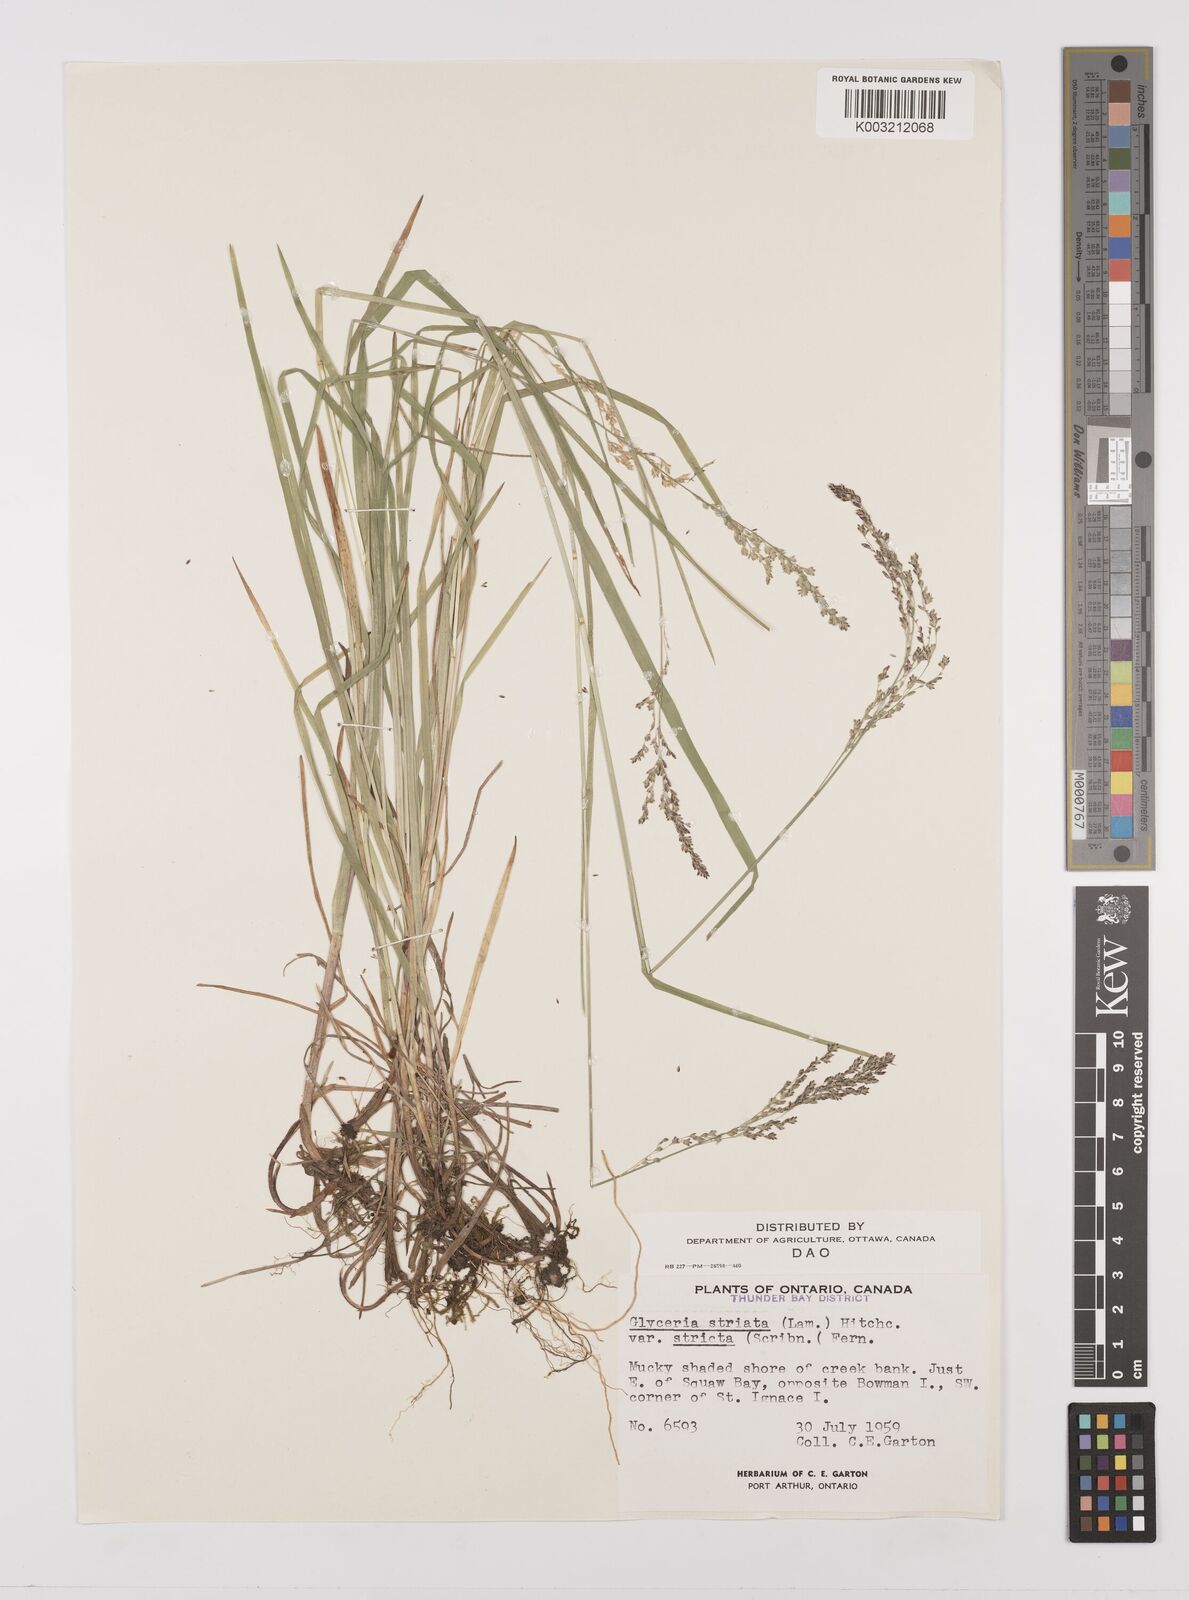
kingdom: Plantae
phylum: Tracheophyta
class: Liliopsida
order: Poales
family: Poaceae
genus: Glyceria
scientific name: Glyceria striata
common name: Fowl manna grass
